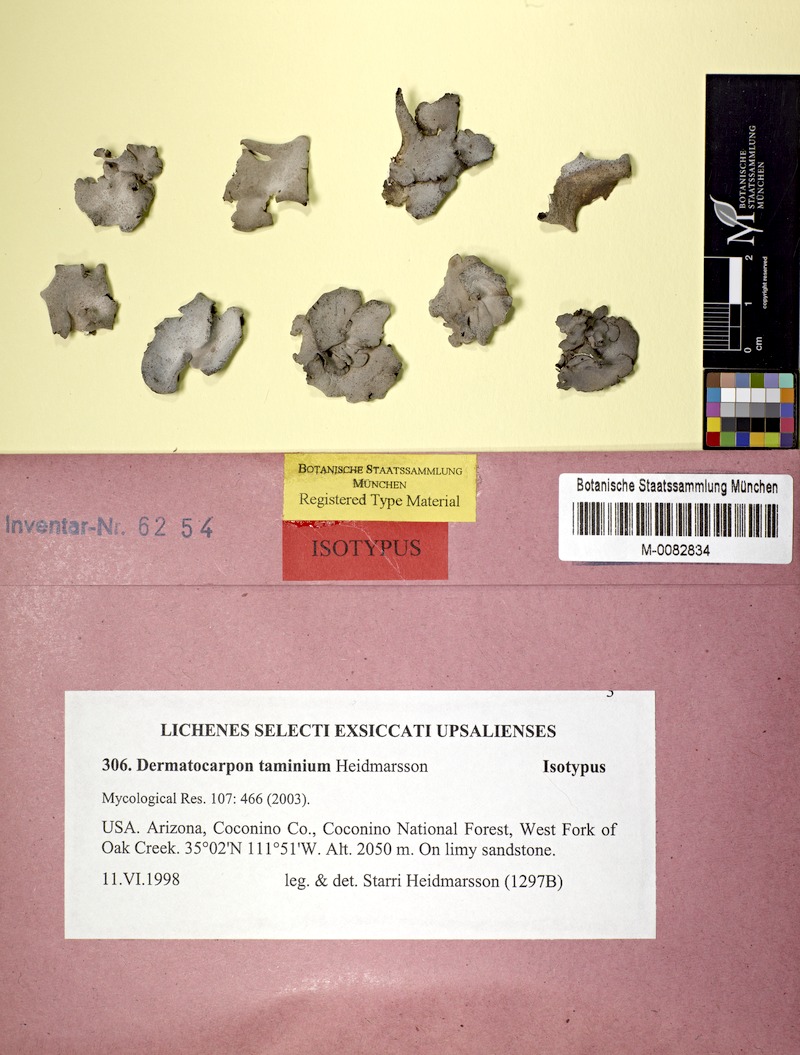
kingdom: Fungi
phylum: Ascomycota
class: Eurotiomycetes
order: Verrucariales
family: Verrucariaceae
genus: Dermatocarpon
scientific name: Dermatocarpon taminium
